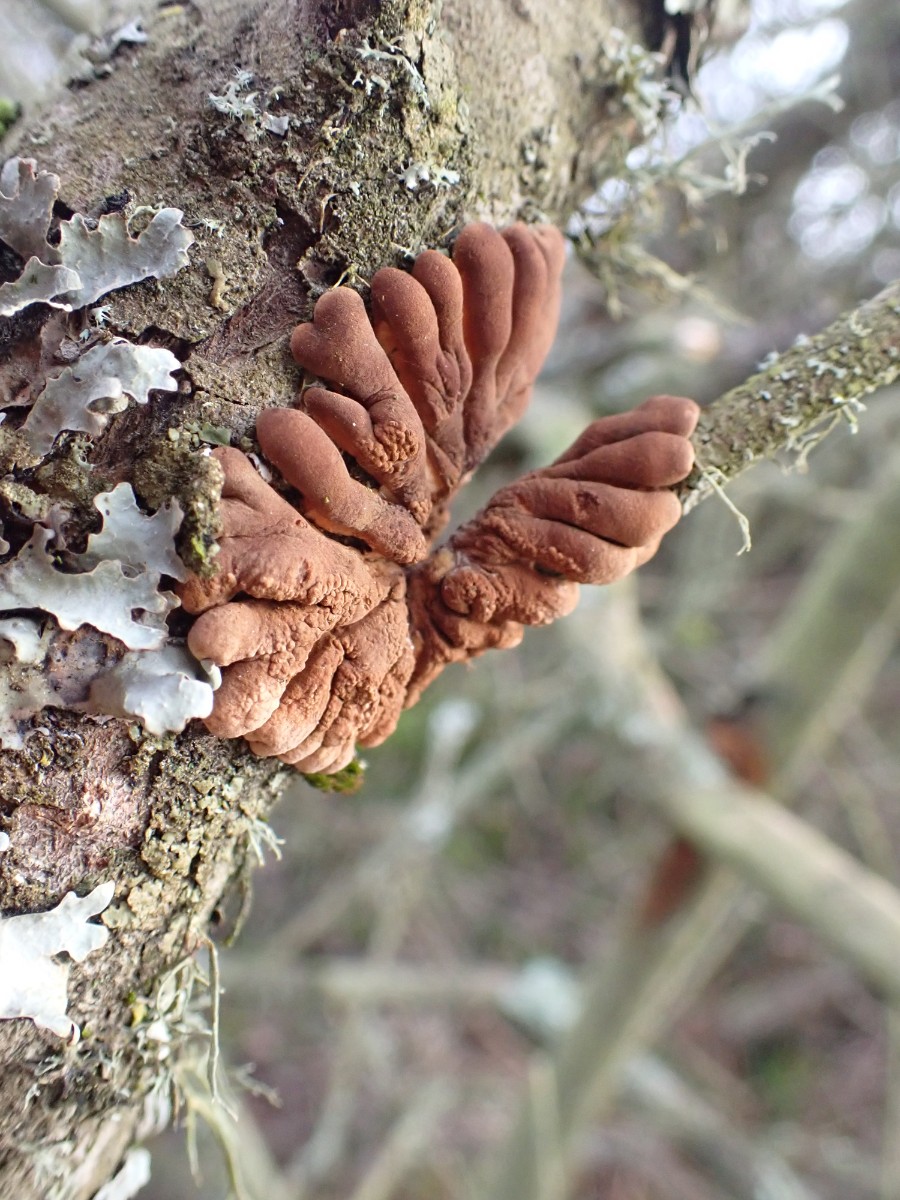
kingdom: Fungi
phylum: Ascomycota
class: Sordariomycetes
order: Hypocreales
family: Hypocreaceae
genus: Hypocreopsis
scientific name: Hypocreopsis lichenoides
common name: pilfinger
